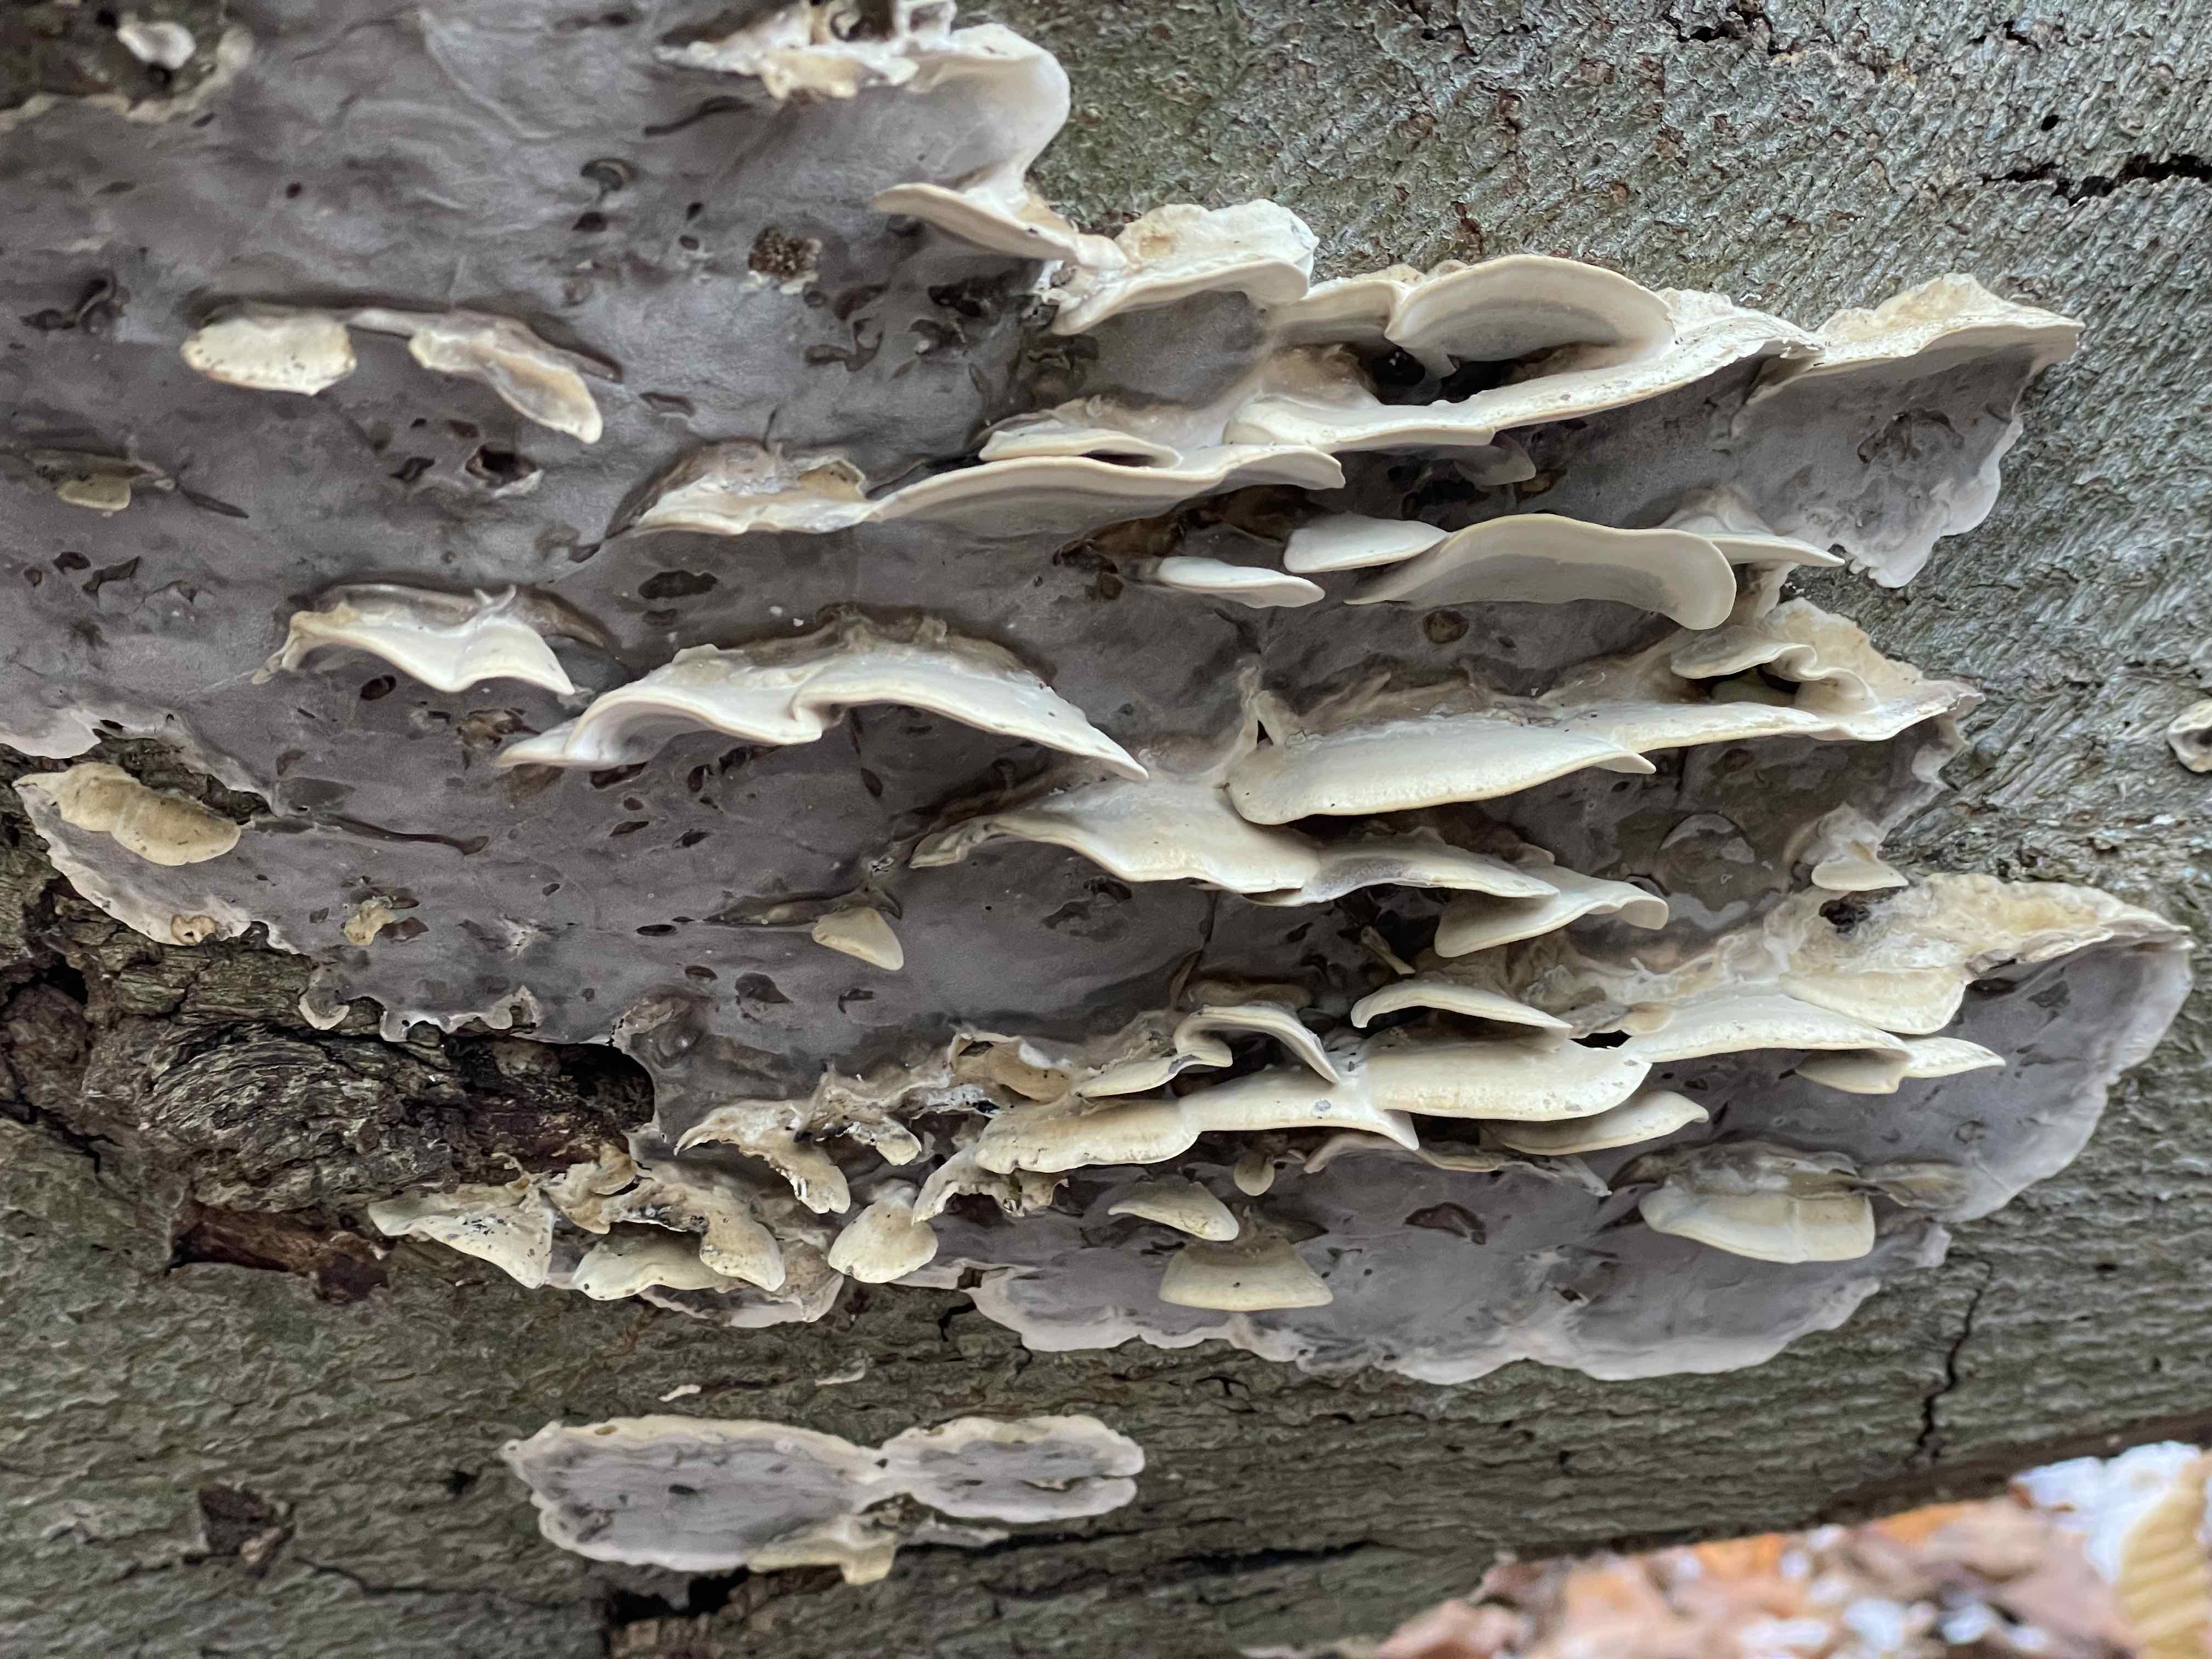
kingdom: Fungi
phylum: Basidiomycota
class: Agaricomycetes
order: Polyporales
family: Phanerochaetaceae
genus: Bjerkandera
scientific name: Bjerkandera adusta
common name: sveden sodporesvamp
